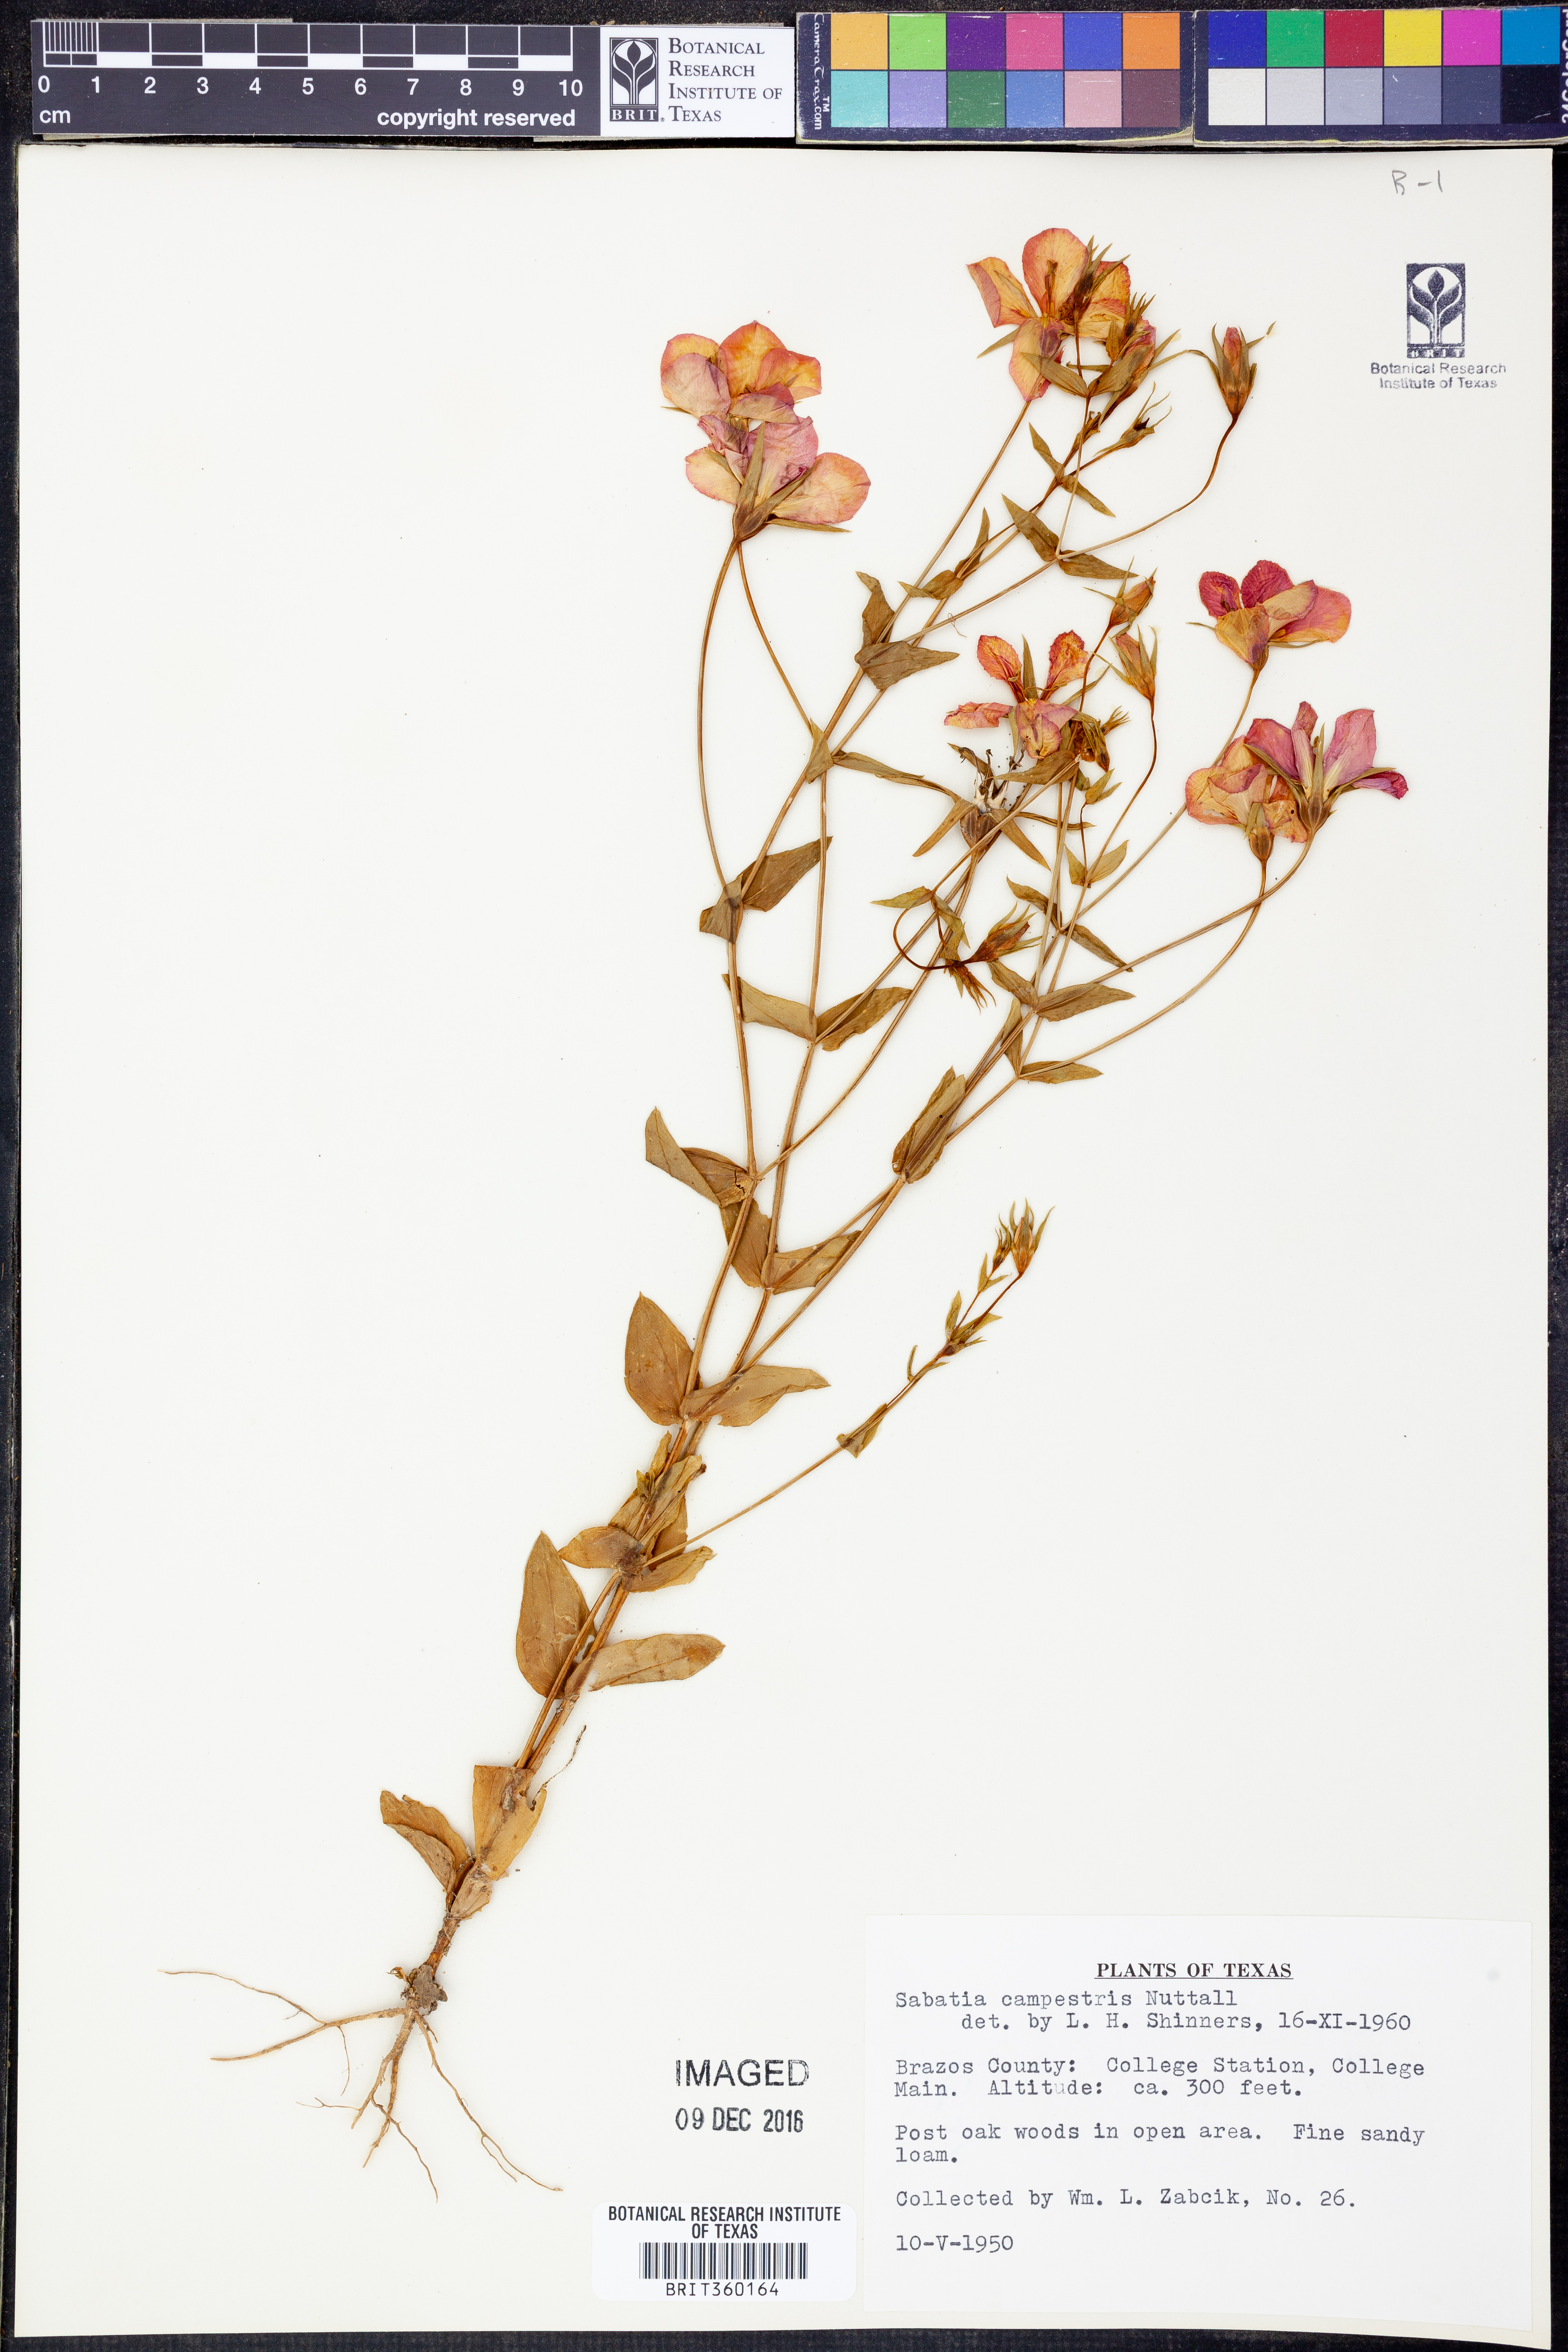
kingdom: Plantae
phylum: Tracheophyta
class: Magnoliopsida
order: Gentianales
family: Gentianaceae
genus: Sabatia
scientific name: Sabatia campestris
